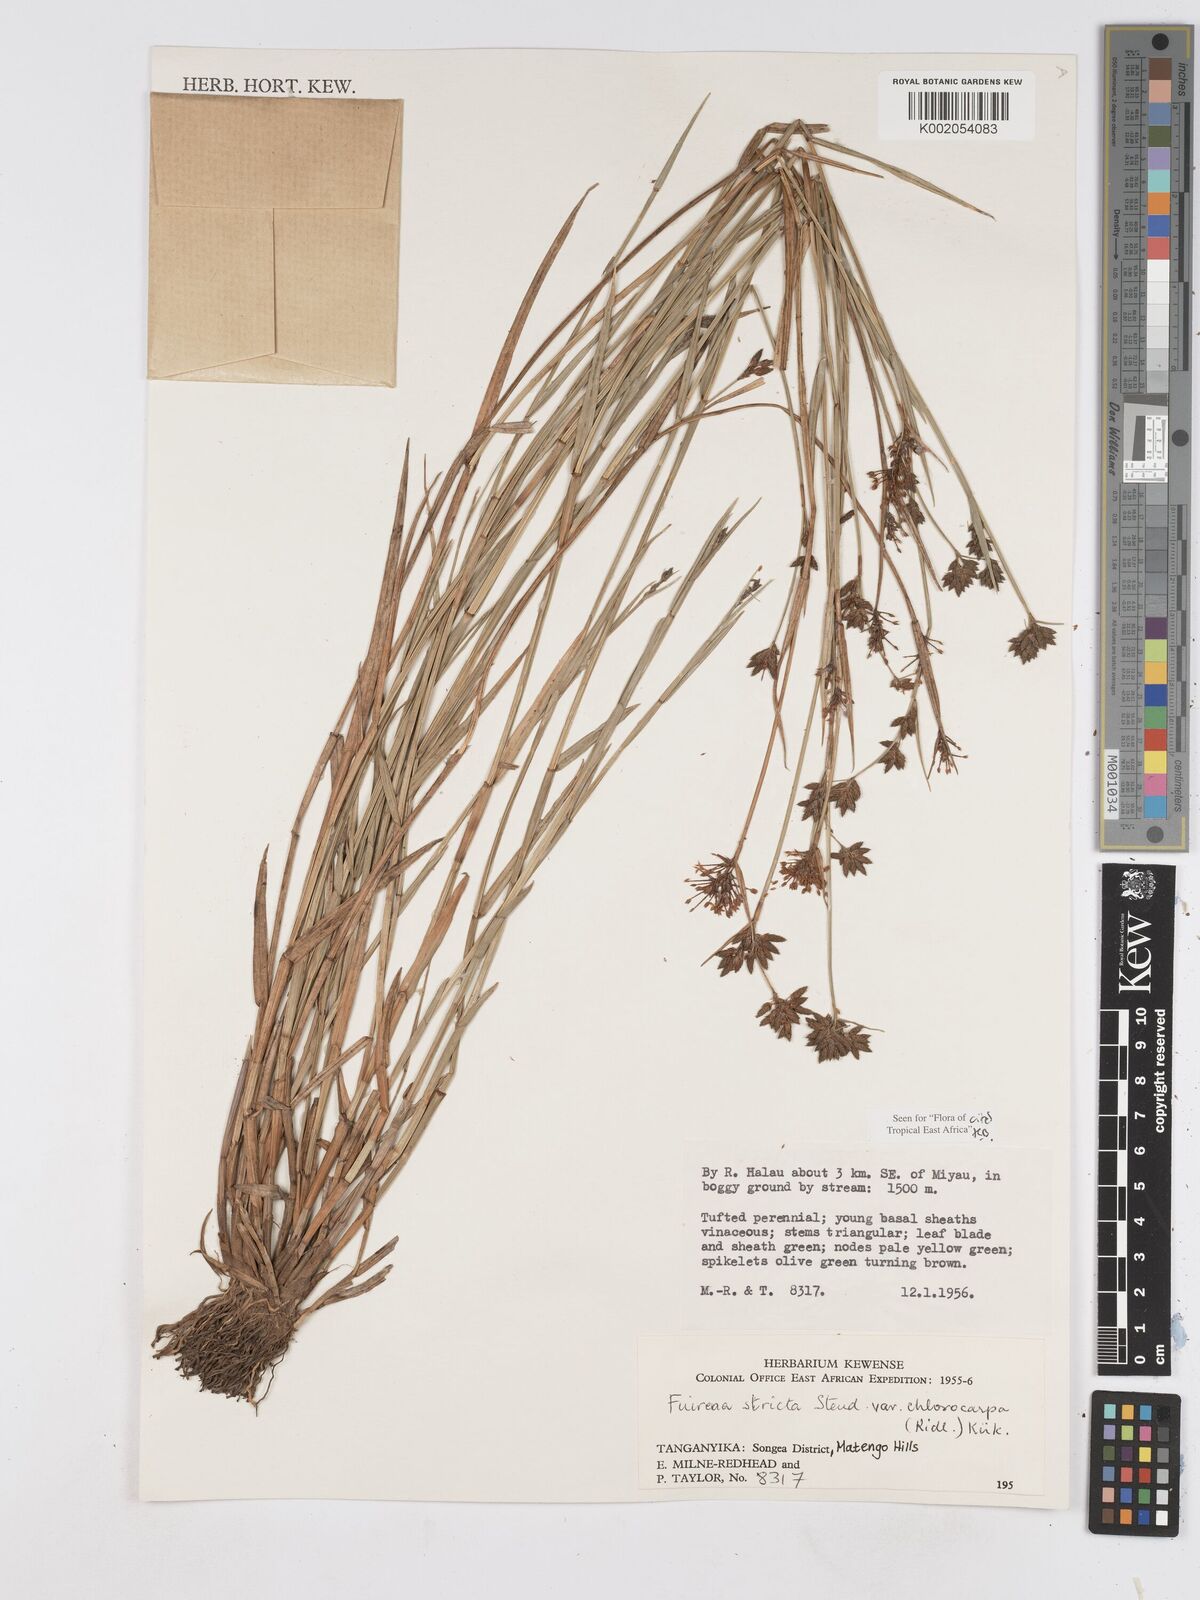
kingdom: Plantae
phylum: Tracheophyta
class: Liliopsida
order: Poales
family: Cyperaceae
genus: Fuirena
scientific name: Fuirena stricta
